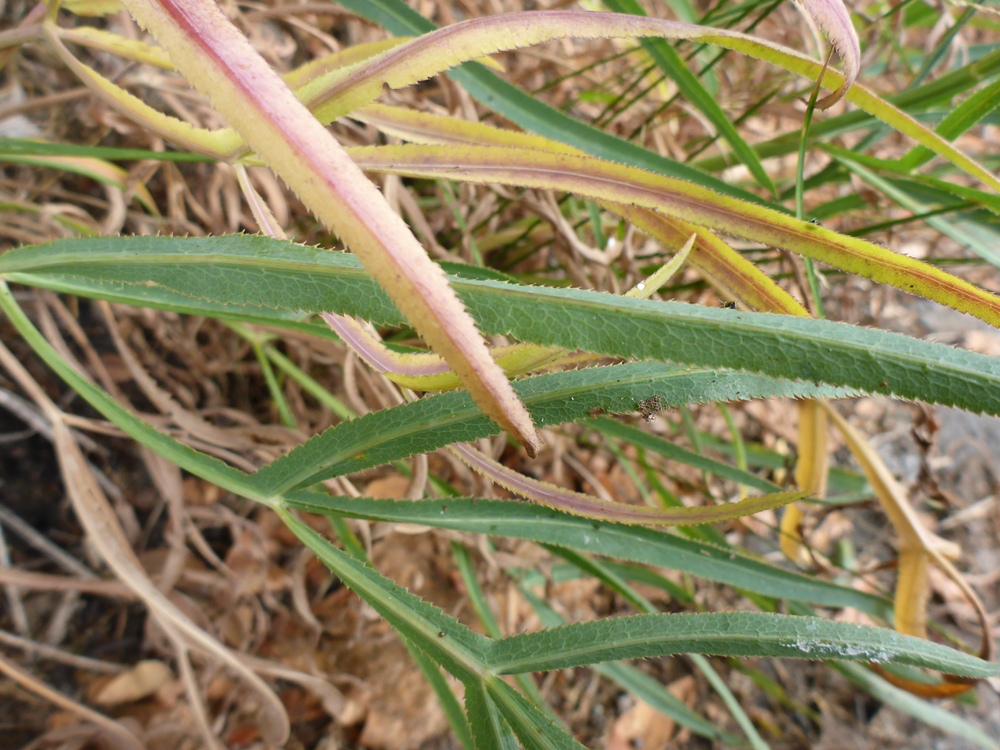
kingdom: Plantae
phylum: Tracheophyta
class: Magnoliopsida
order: Apiales
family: Apiaceae
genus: Falcaria
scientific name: Falcaria vulgaris
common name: Longleaf
